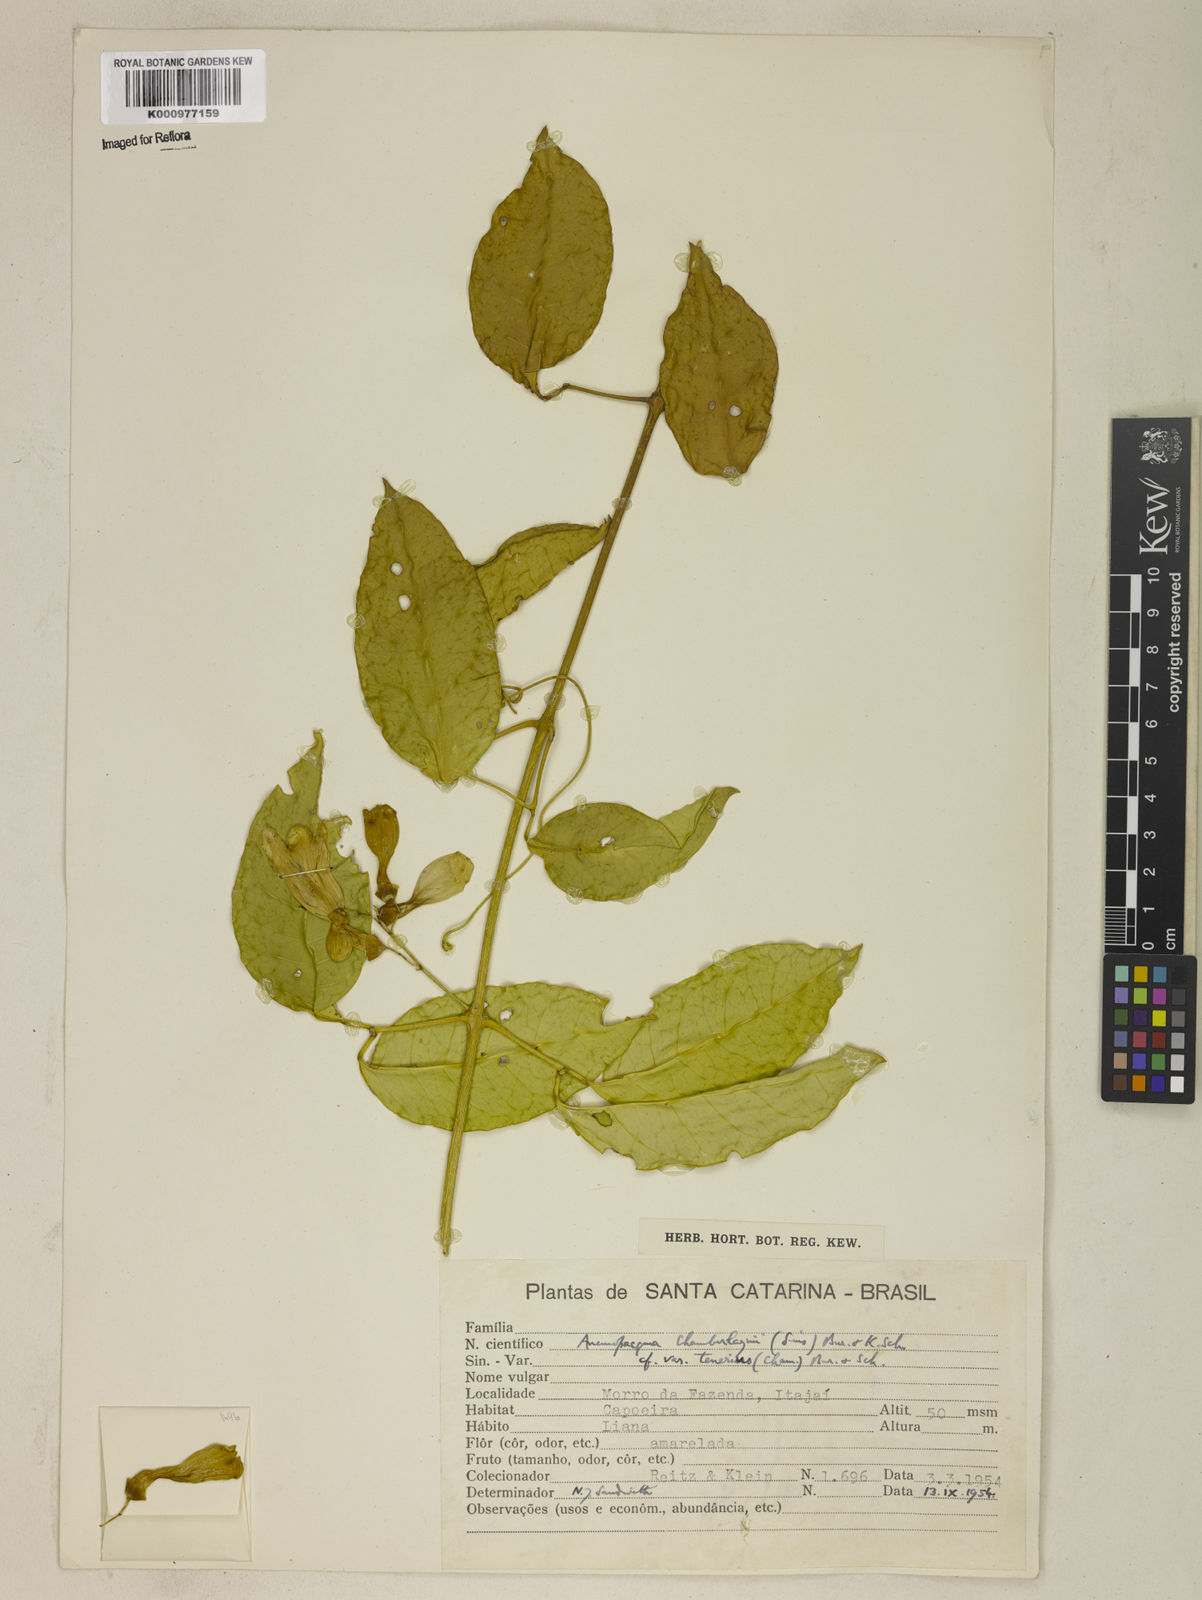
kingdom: Plantae
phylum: Tracheophyta
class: Magnoliopsida
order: Lamiales
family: Bignoniaceae
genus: Anemopaegma
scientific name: Anemopaegma chamberlaynii
